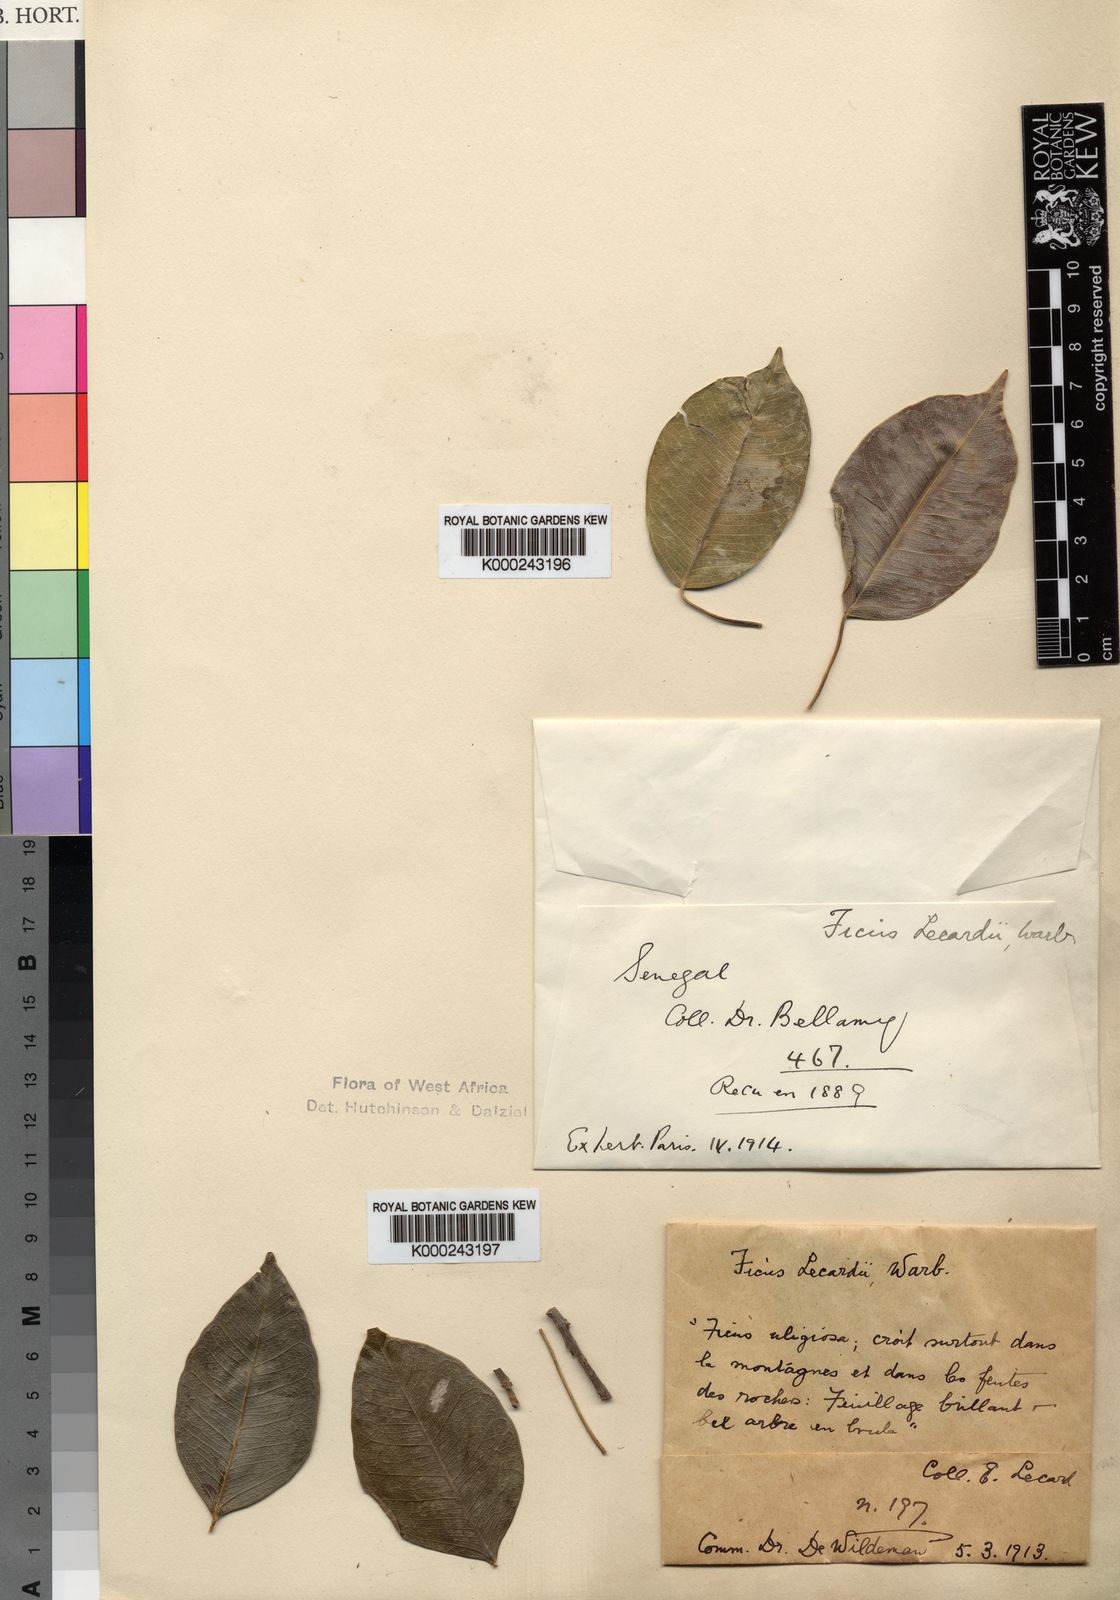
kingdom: Plantae
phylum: Tracheophyta
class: Magnoliopsida
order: Rosales
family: Moraceae
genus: Ficus
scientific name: Ficus cordata
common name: Namaqua rock fig
